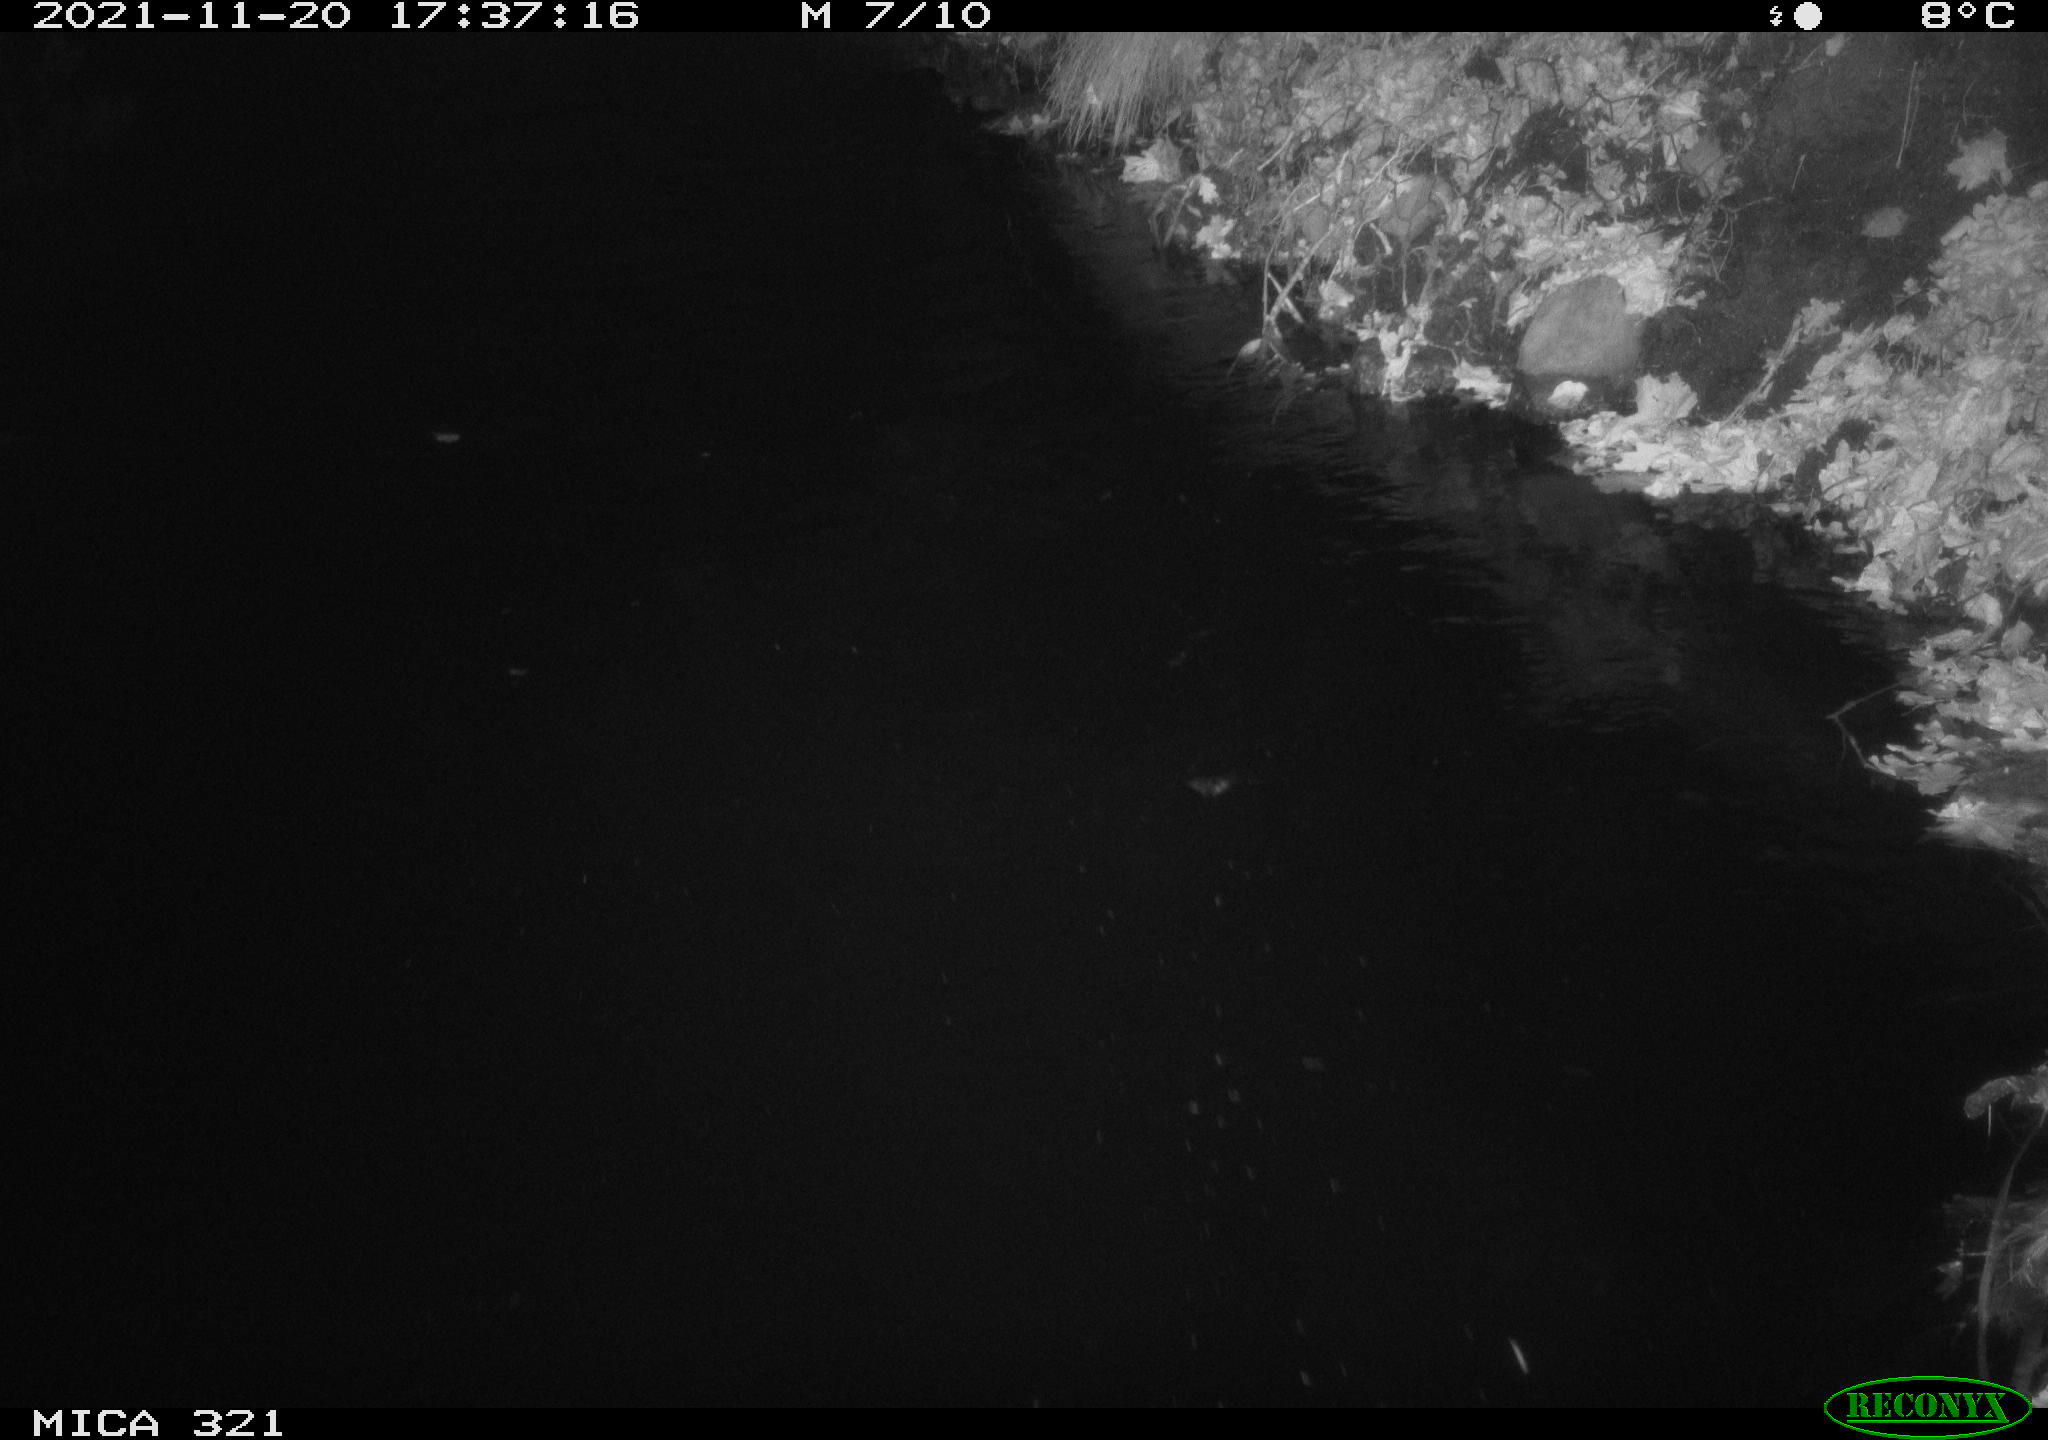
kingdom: Animalia
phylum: Chordata
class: Aves
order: Anseriformes
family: Anatidae
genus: Anas
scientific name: Anas platyrhynchos
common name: Mallard
